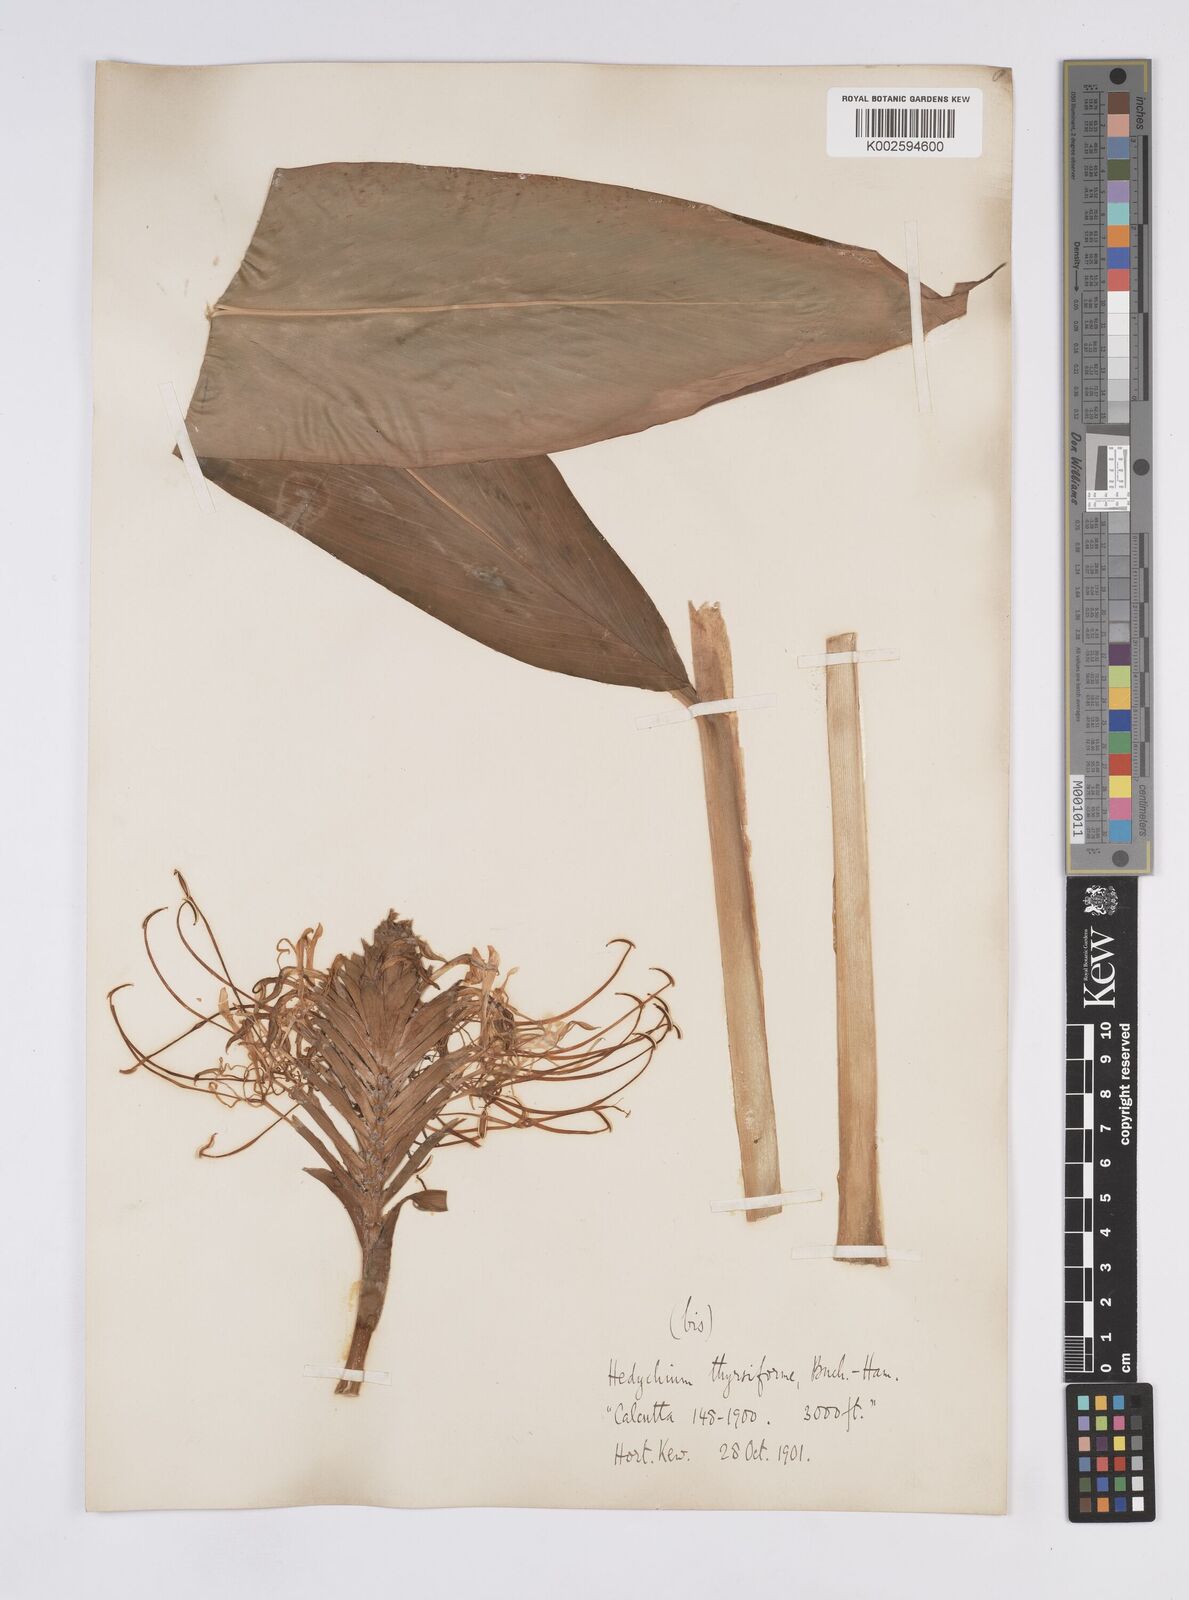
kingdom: Plantae
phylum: Tracheophyta
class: Liliopsida
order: Zingiberales
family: Zingiberaceae
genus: Hedychium
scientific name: Hedychium thyrsiforme
